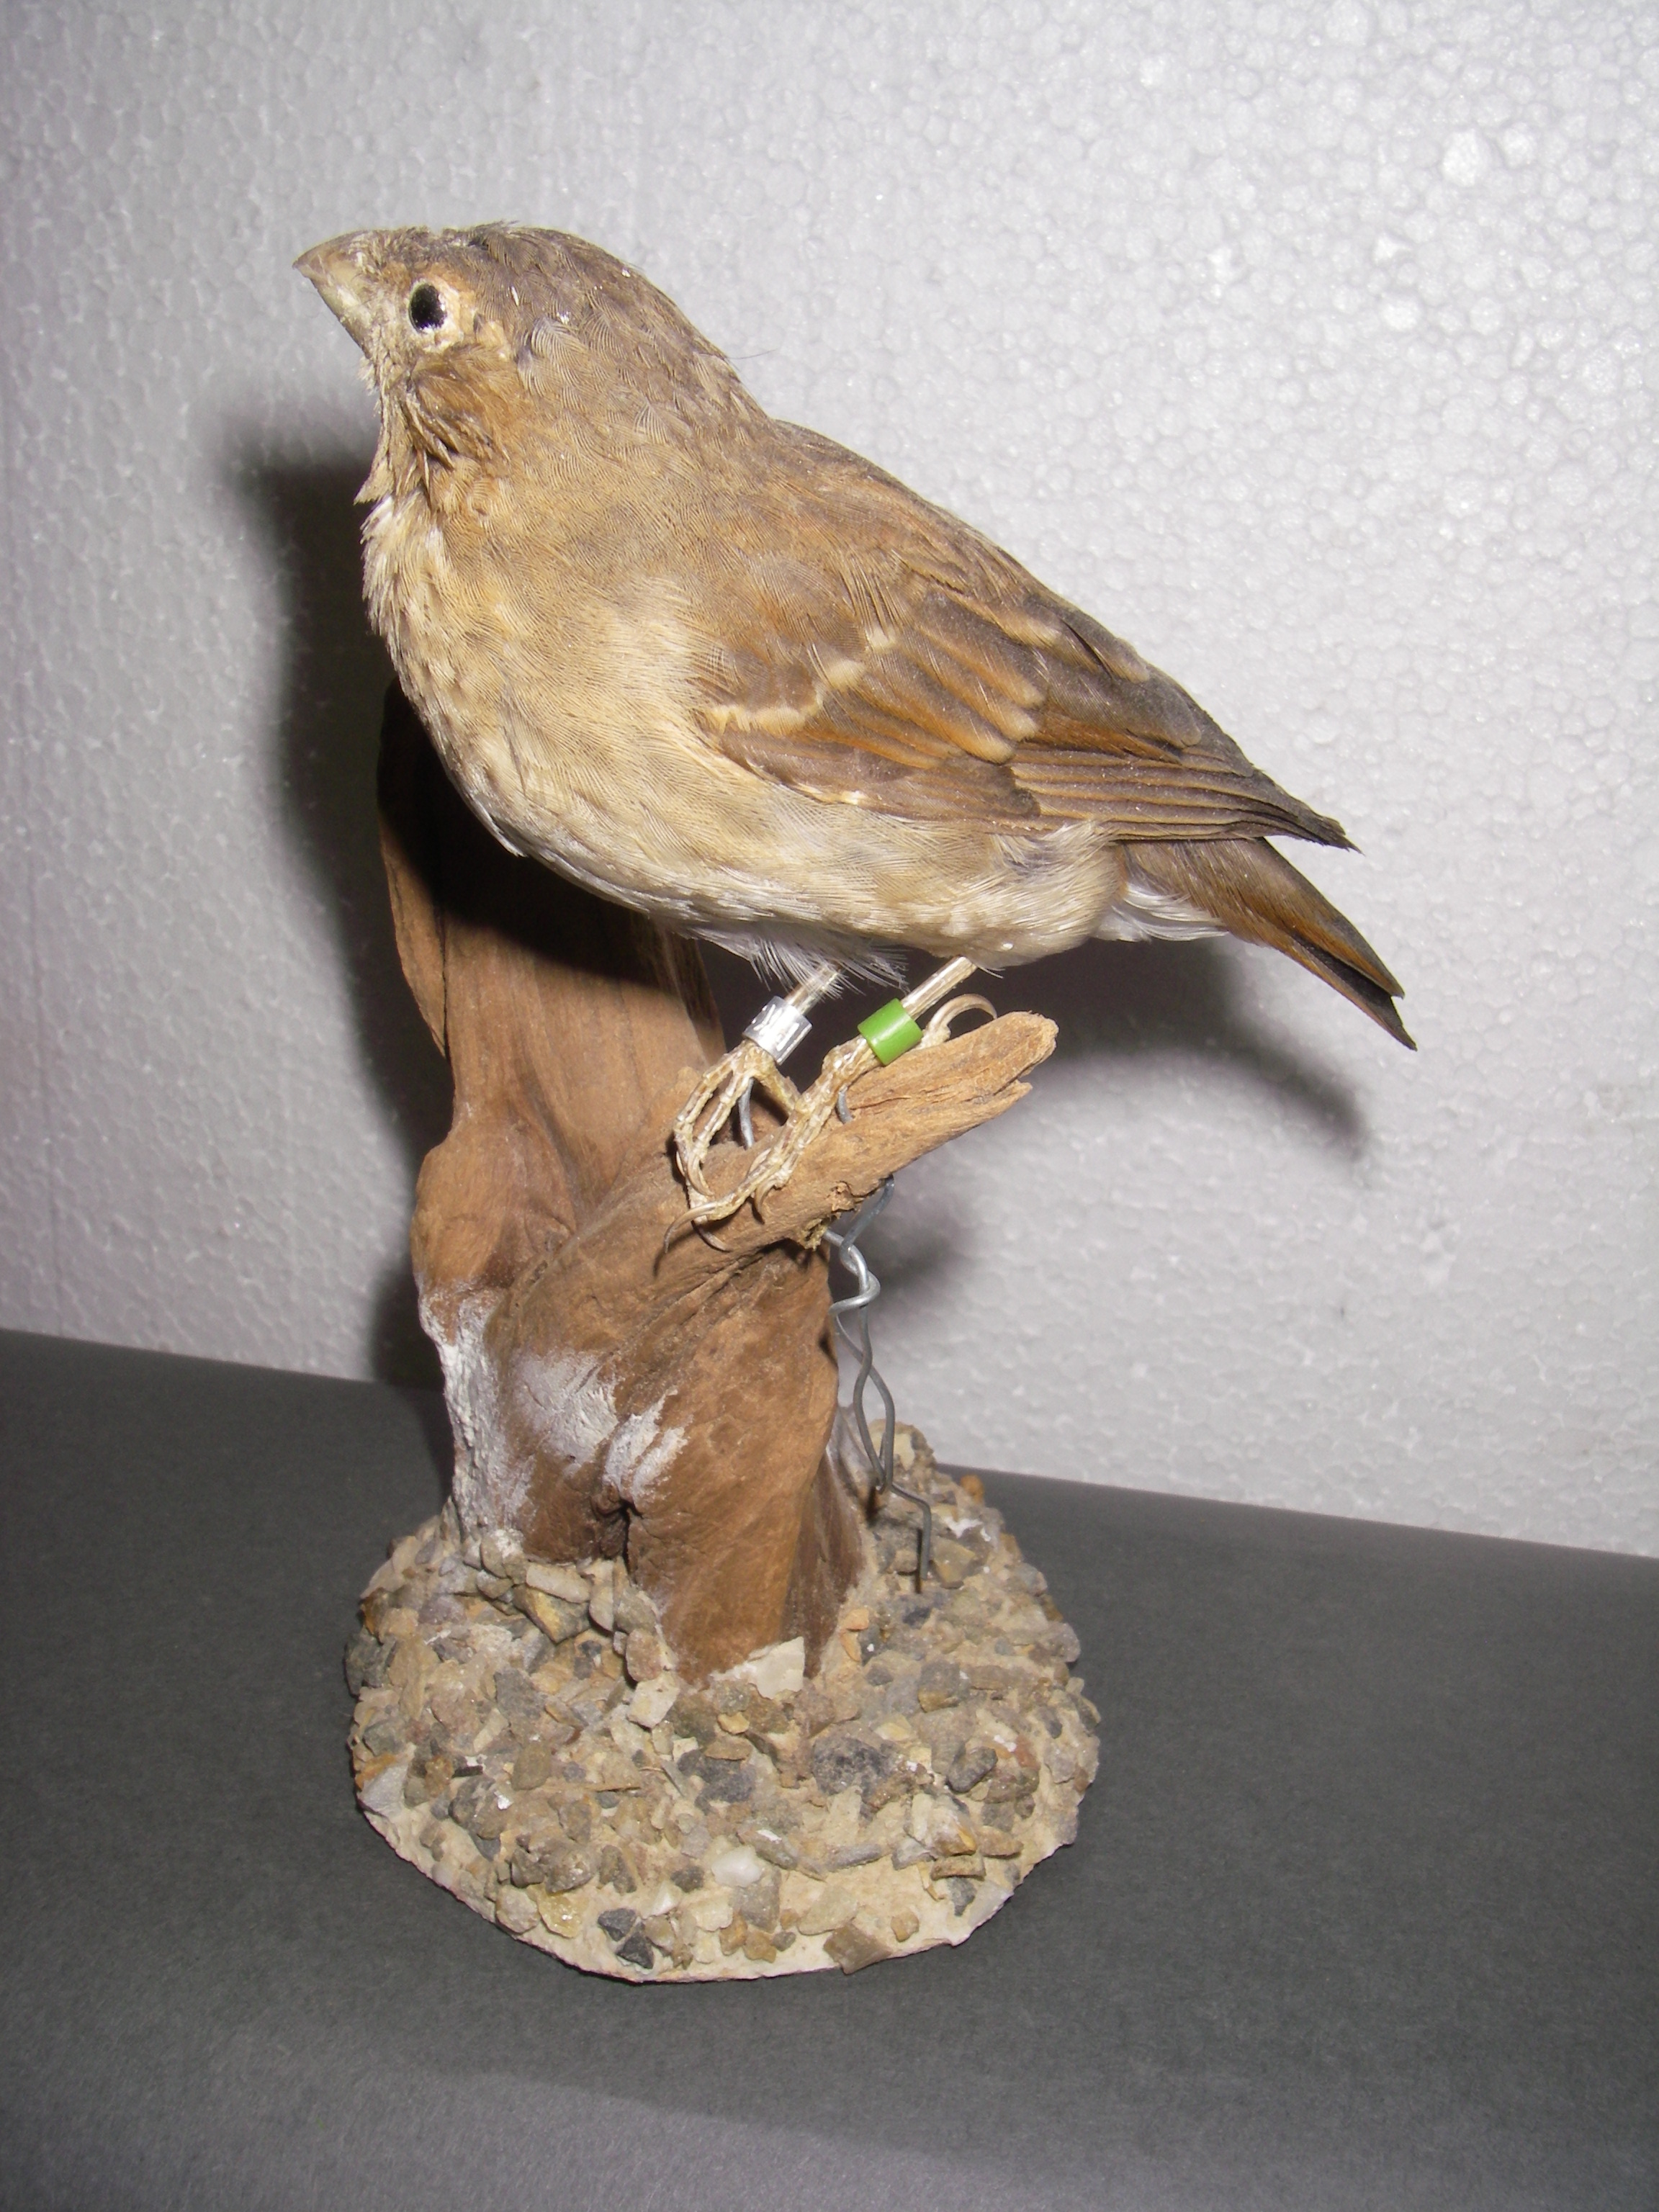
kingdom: Animalia
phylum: Chordata
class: Aves
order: Passeriformes
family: Fringillidae
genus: Carpodacus
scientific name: Carpodacus erythrinus
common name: Common rosefinch
